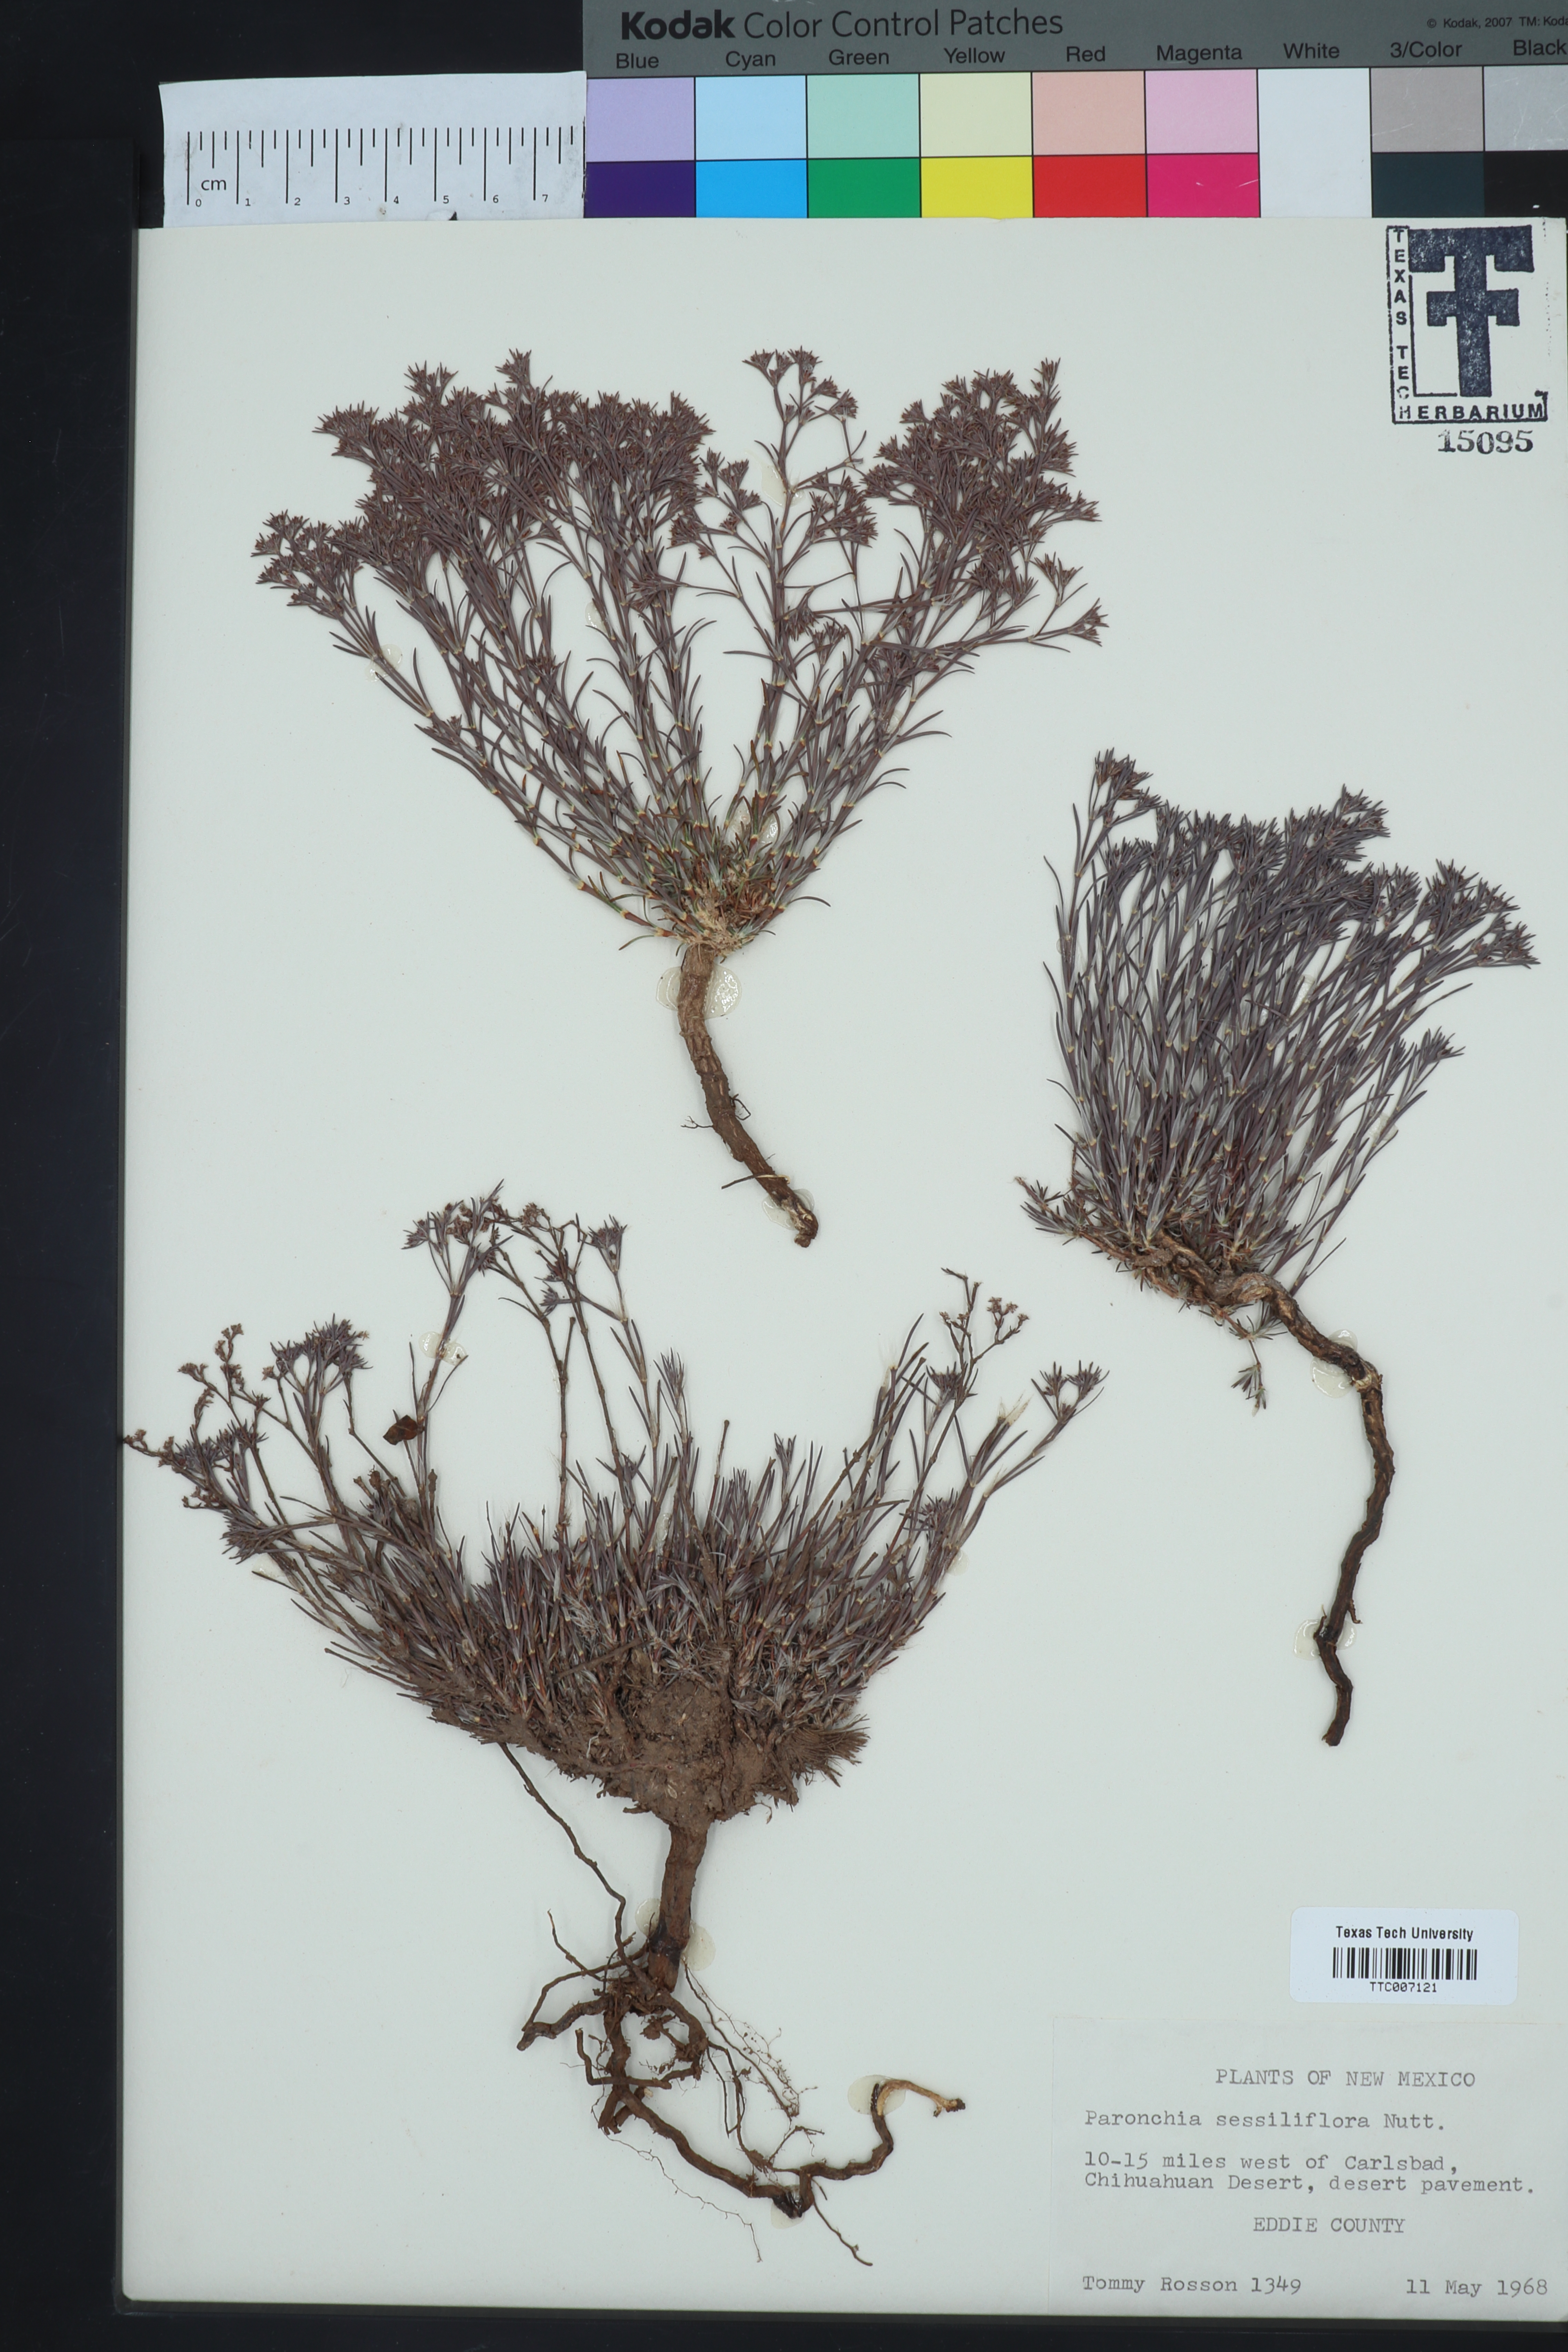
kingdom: Plantae
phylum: Tracheophyta
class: Magnoliopsida
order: Caryophyllales
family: Caryophyllaceae
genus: Paronychia
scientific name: Paronychia jamesii
